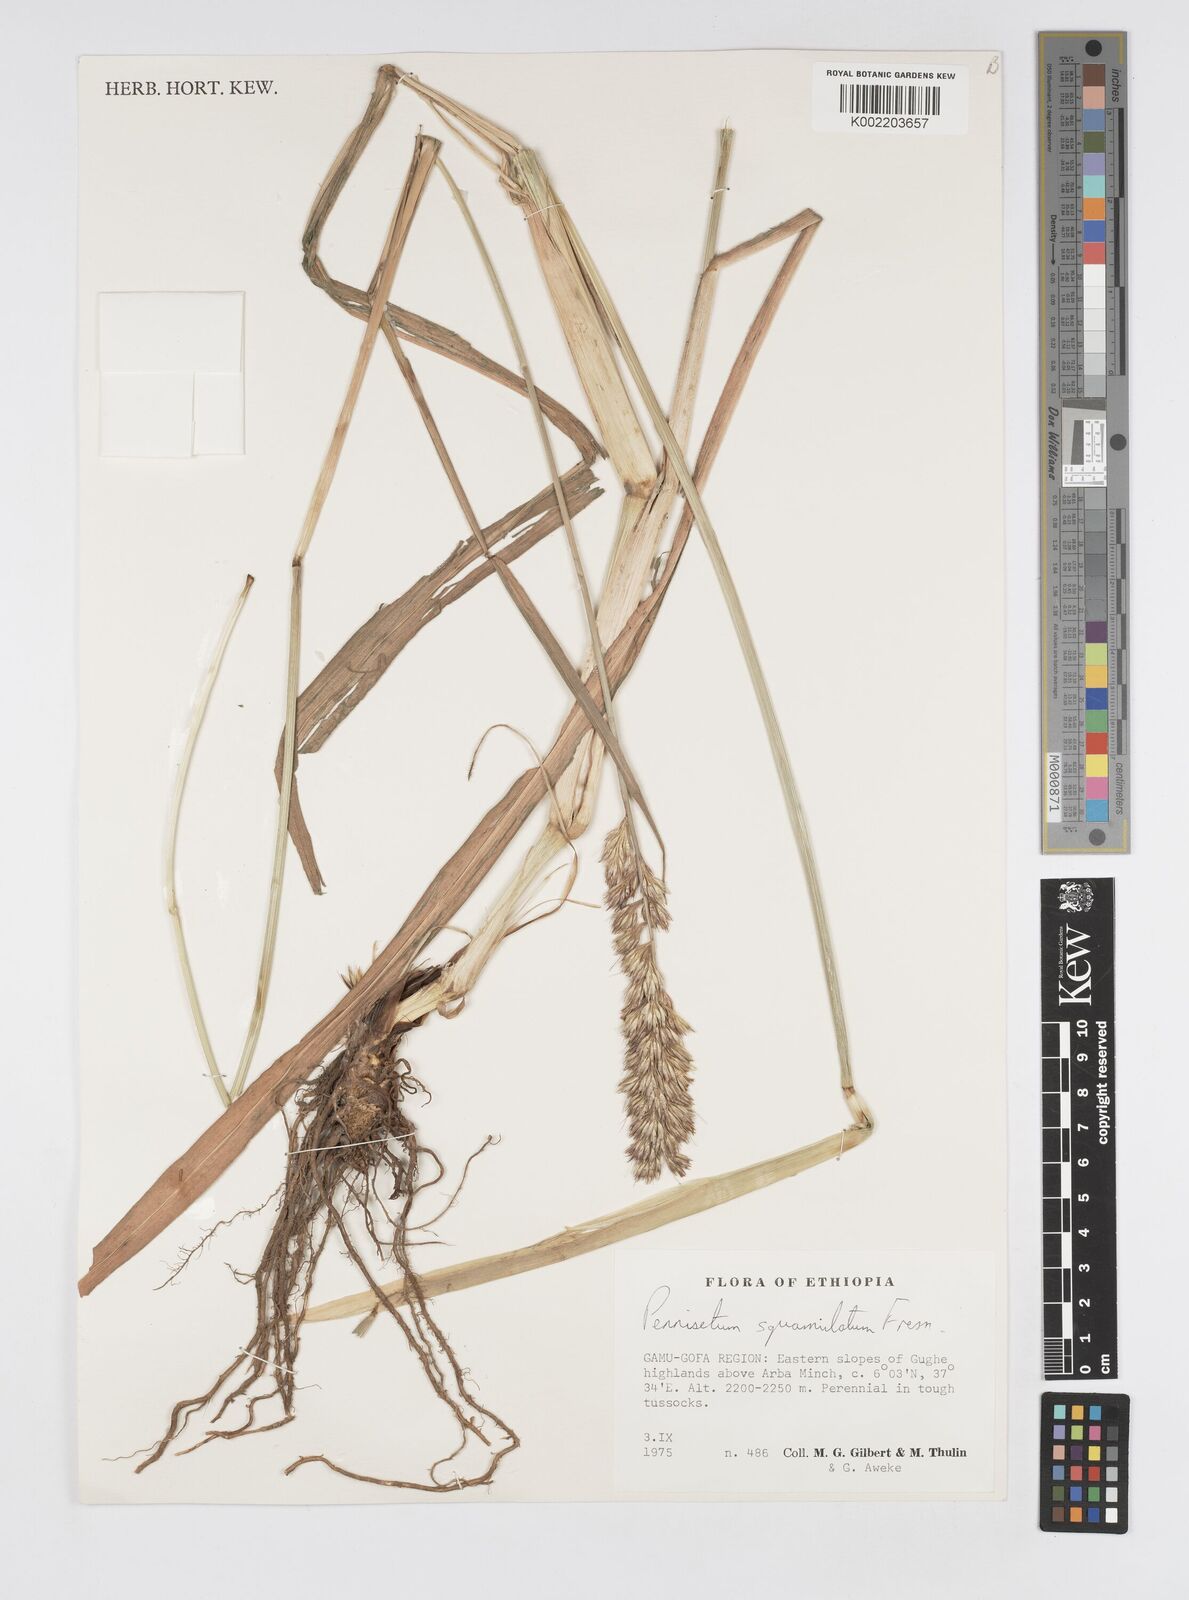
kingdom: Plantae
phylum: Tracheophyta
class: Liliopsida
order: Poales
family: Poaceae
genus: Cenchrus
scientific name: Cenchrus squamulatus
